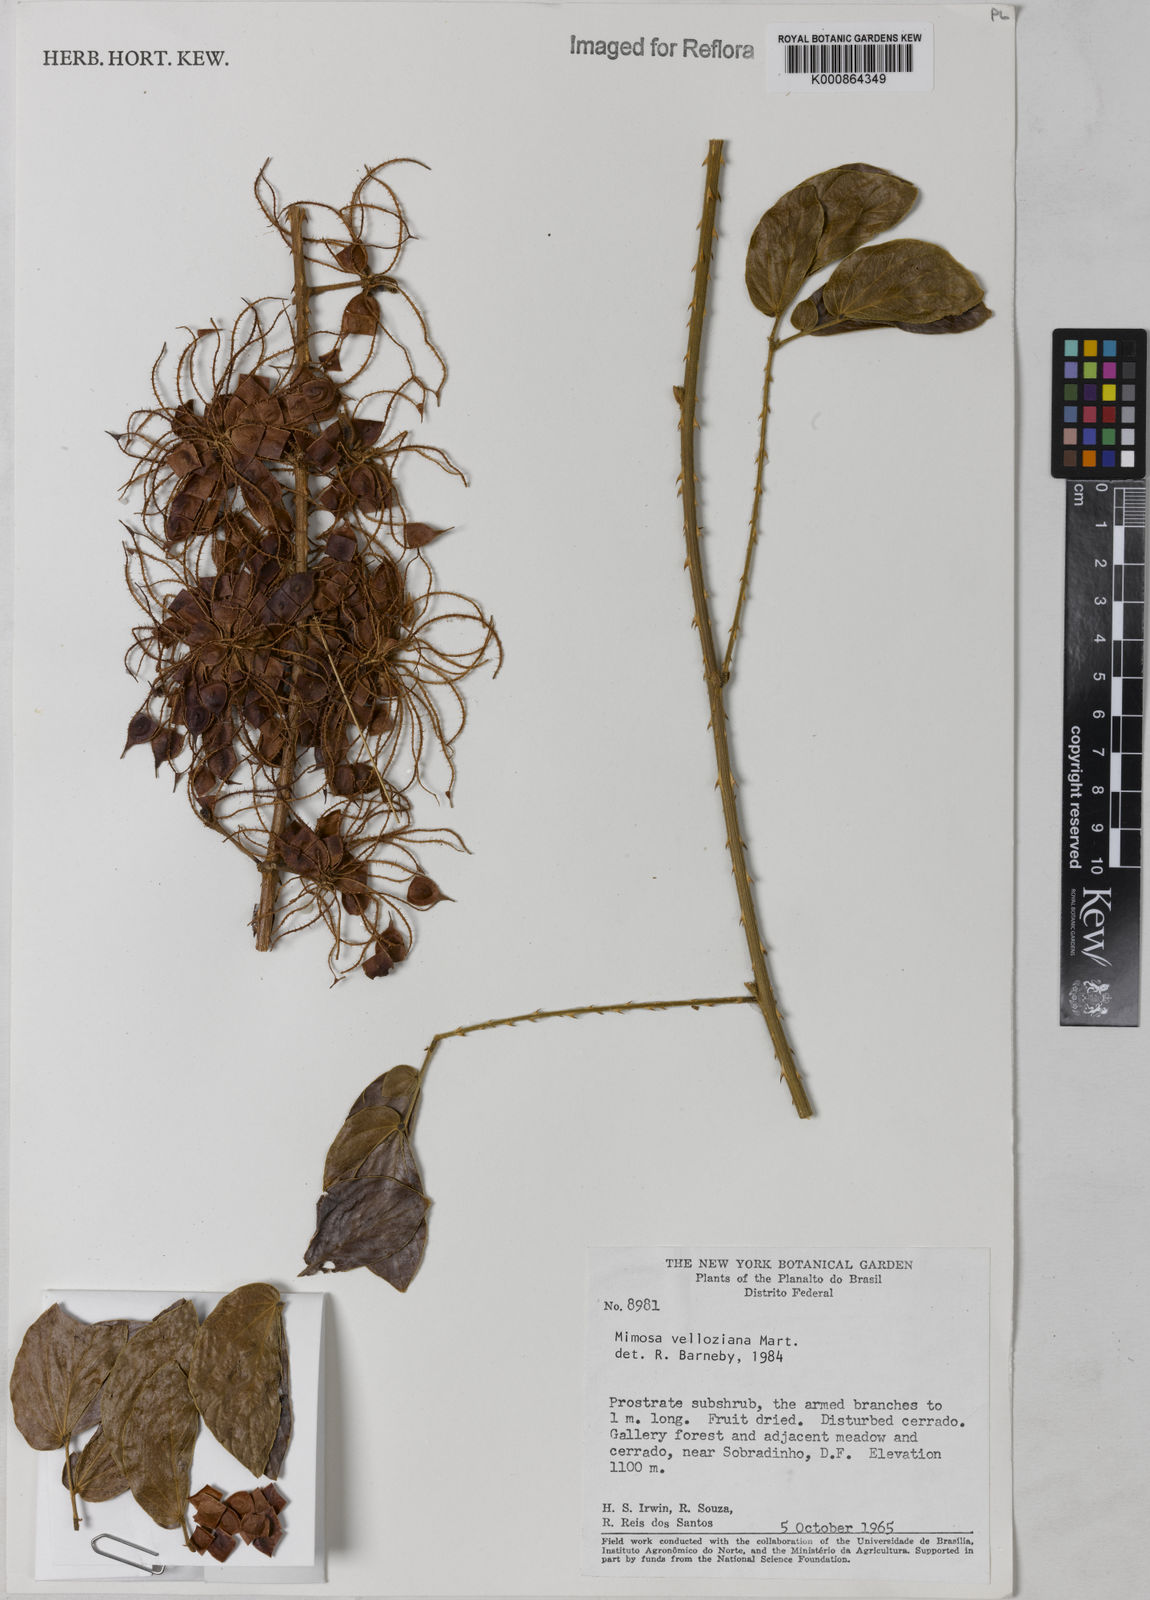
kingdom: Plantae
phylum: Tracheophyta
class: Magnoliopsida
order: Fabales
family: Fabaceae
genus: Mimosa
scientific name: Mimosa velloziana
